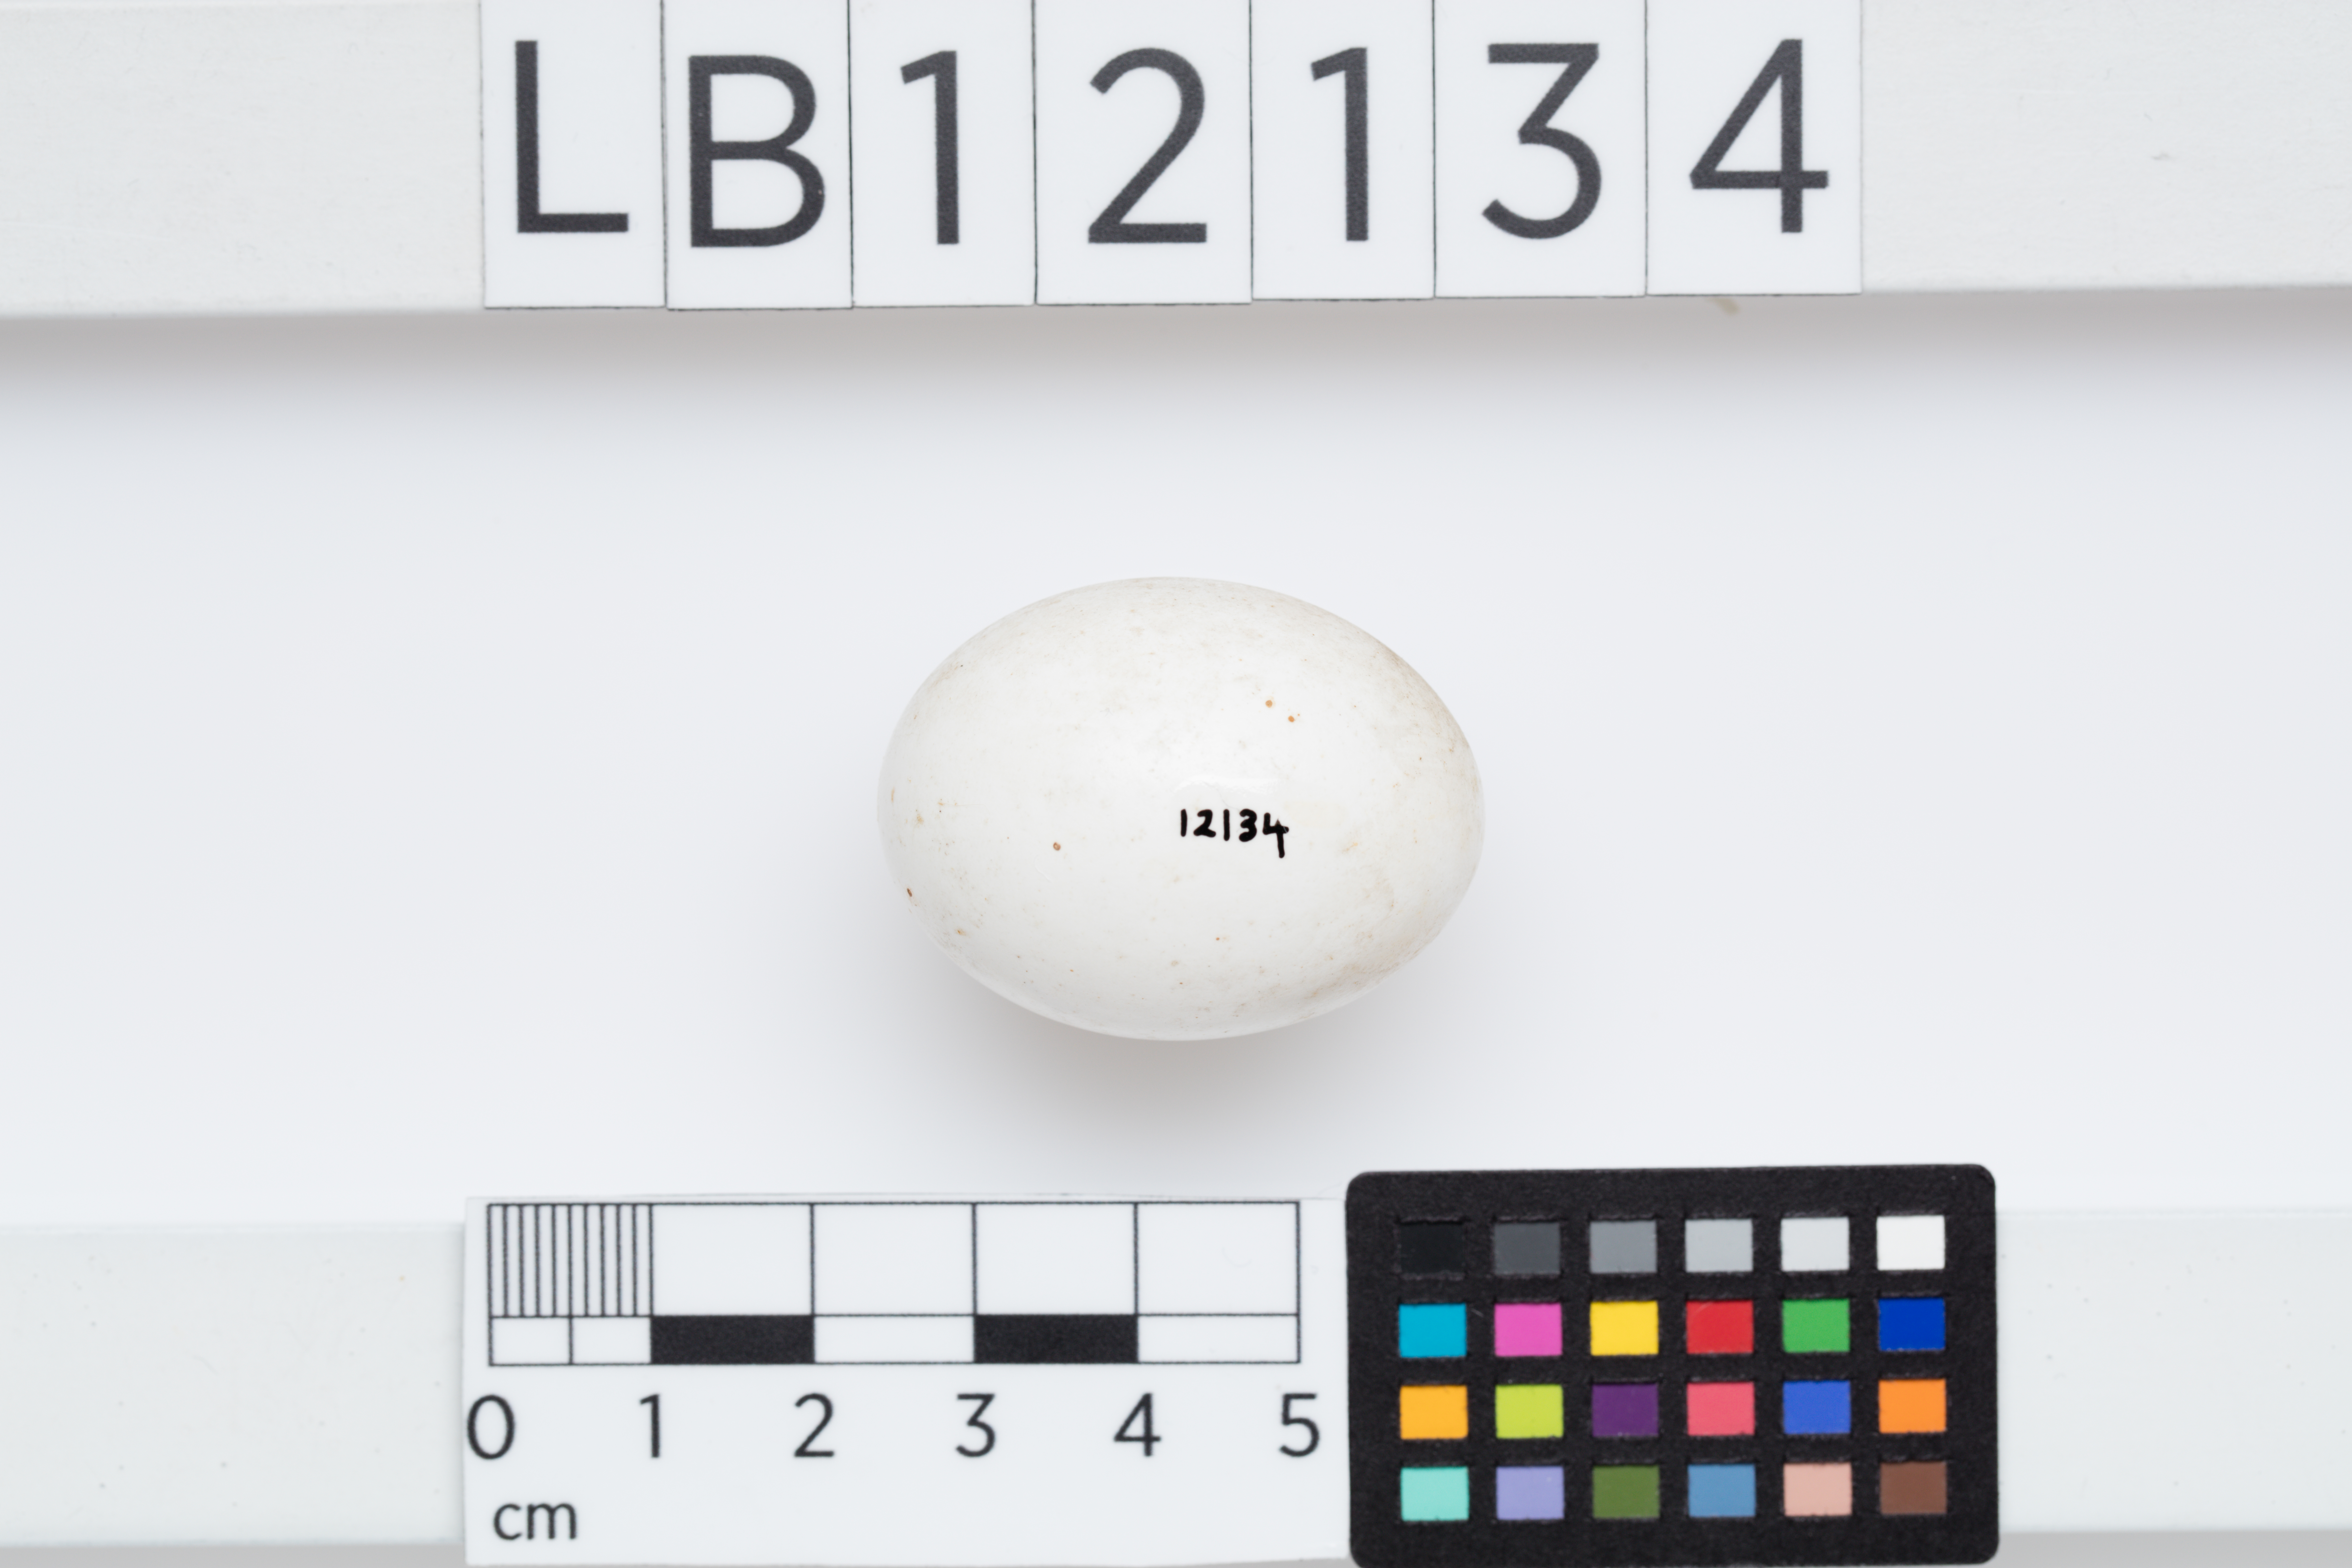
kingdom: Animalia
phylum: Chordata
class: Aves
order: Psittaciformes
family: Psittacidae
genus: Callocephalon
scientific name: Callocephalon fimbriatum
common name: Gang-gang cockatoo
